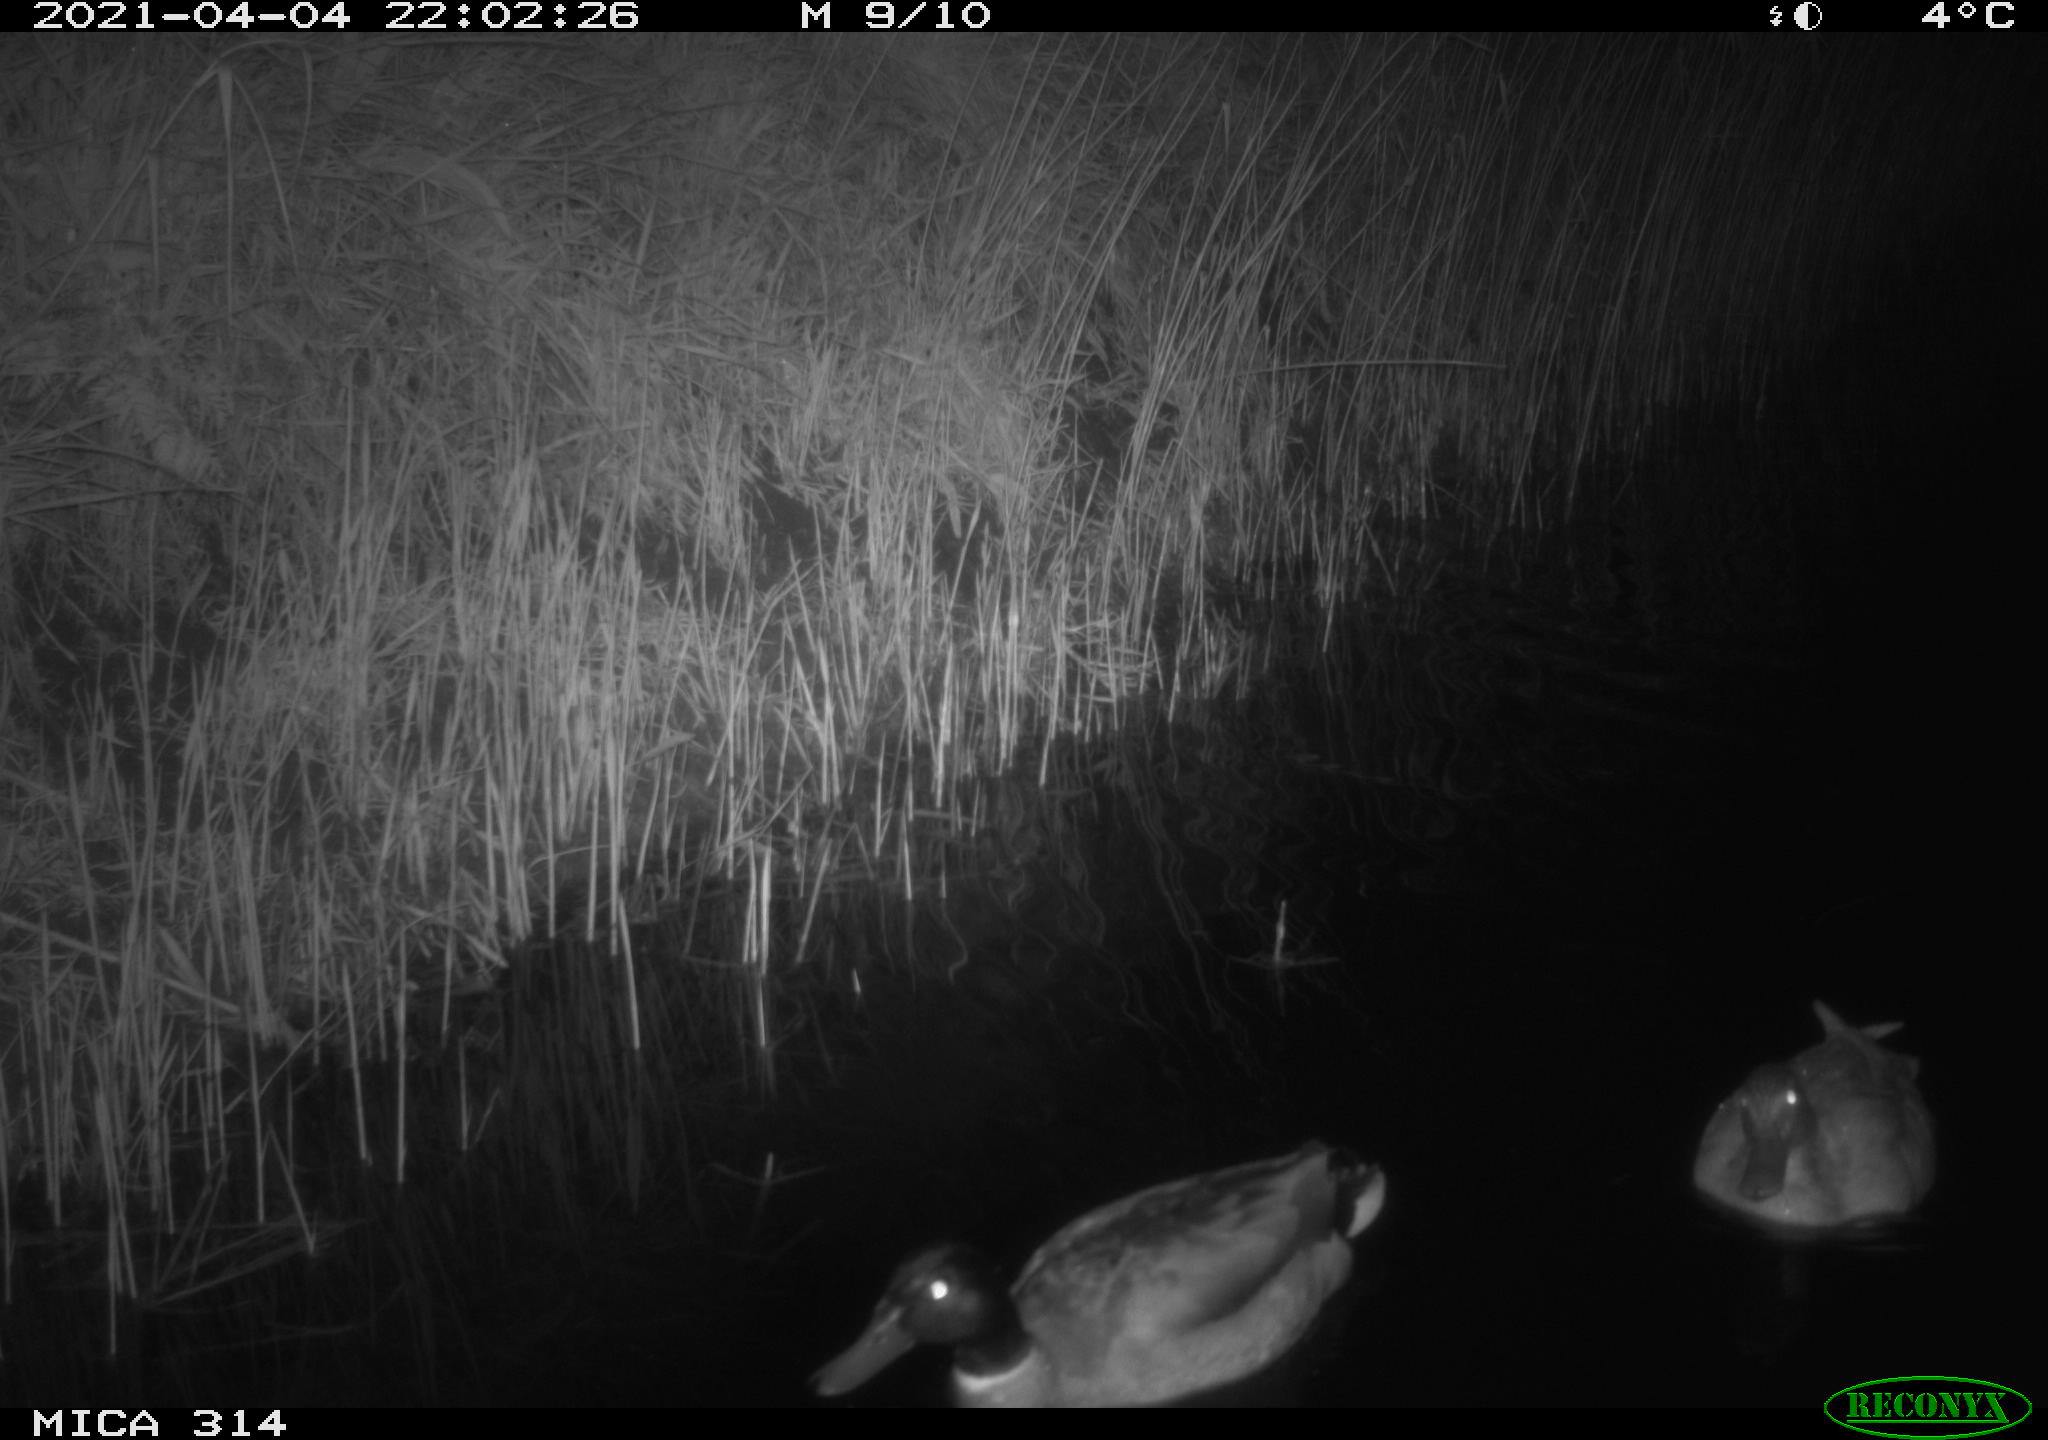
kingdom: Animalia
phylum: Chordata
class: Aves
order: Anseriformes
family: Anatidae
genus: Anas
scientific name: Anas platyrhynchos
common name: Mallard
